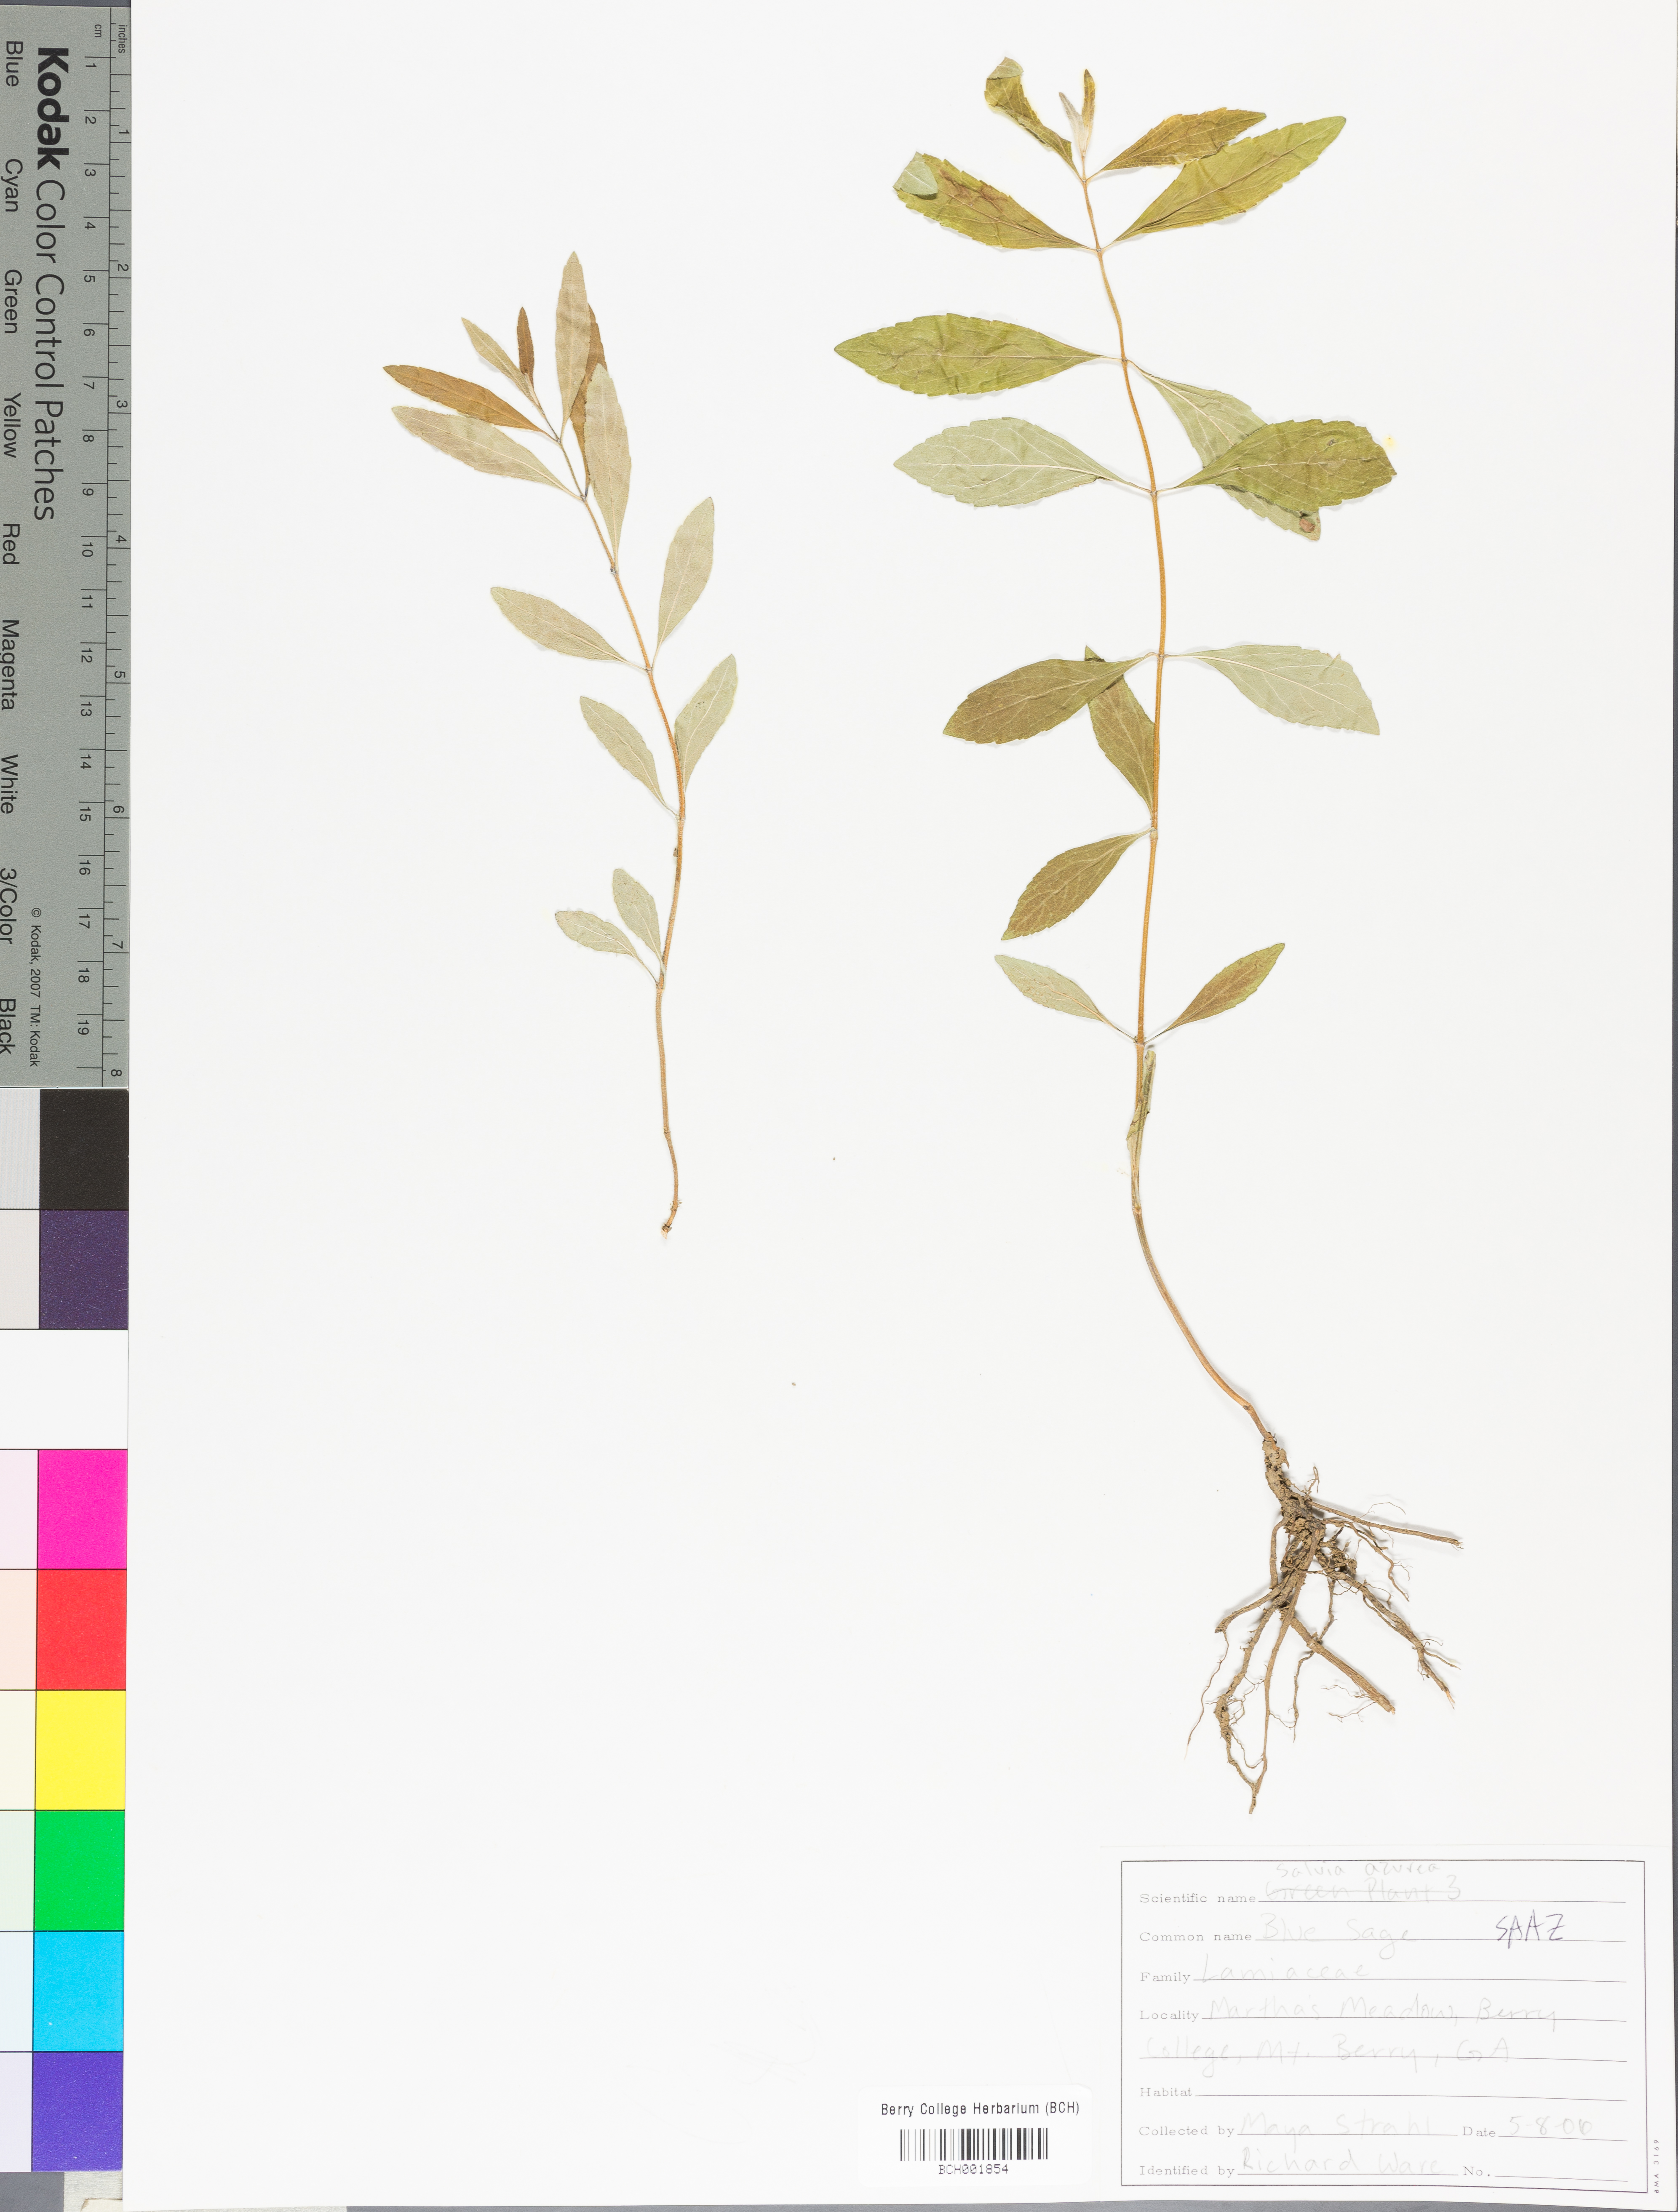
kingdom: Plantae
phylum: Tracheophyta
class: Magnoliopsida
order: Lamiales
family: Lamiaceae
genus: Salvia
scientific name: Salvia azurea
